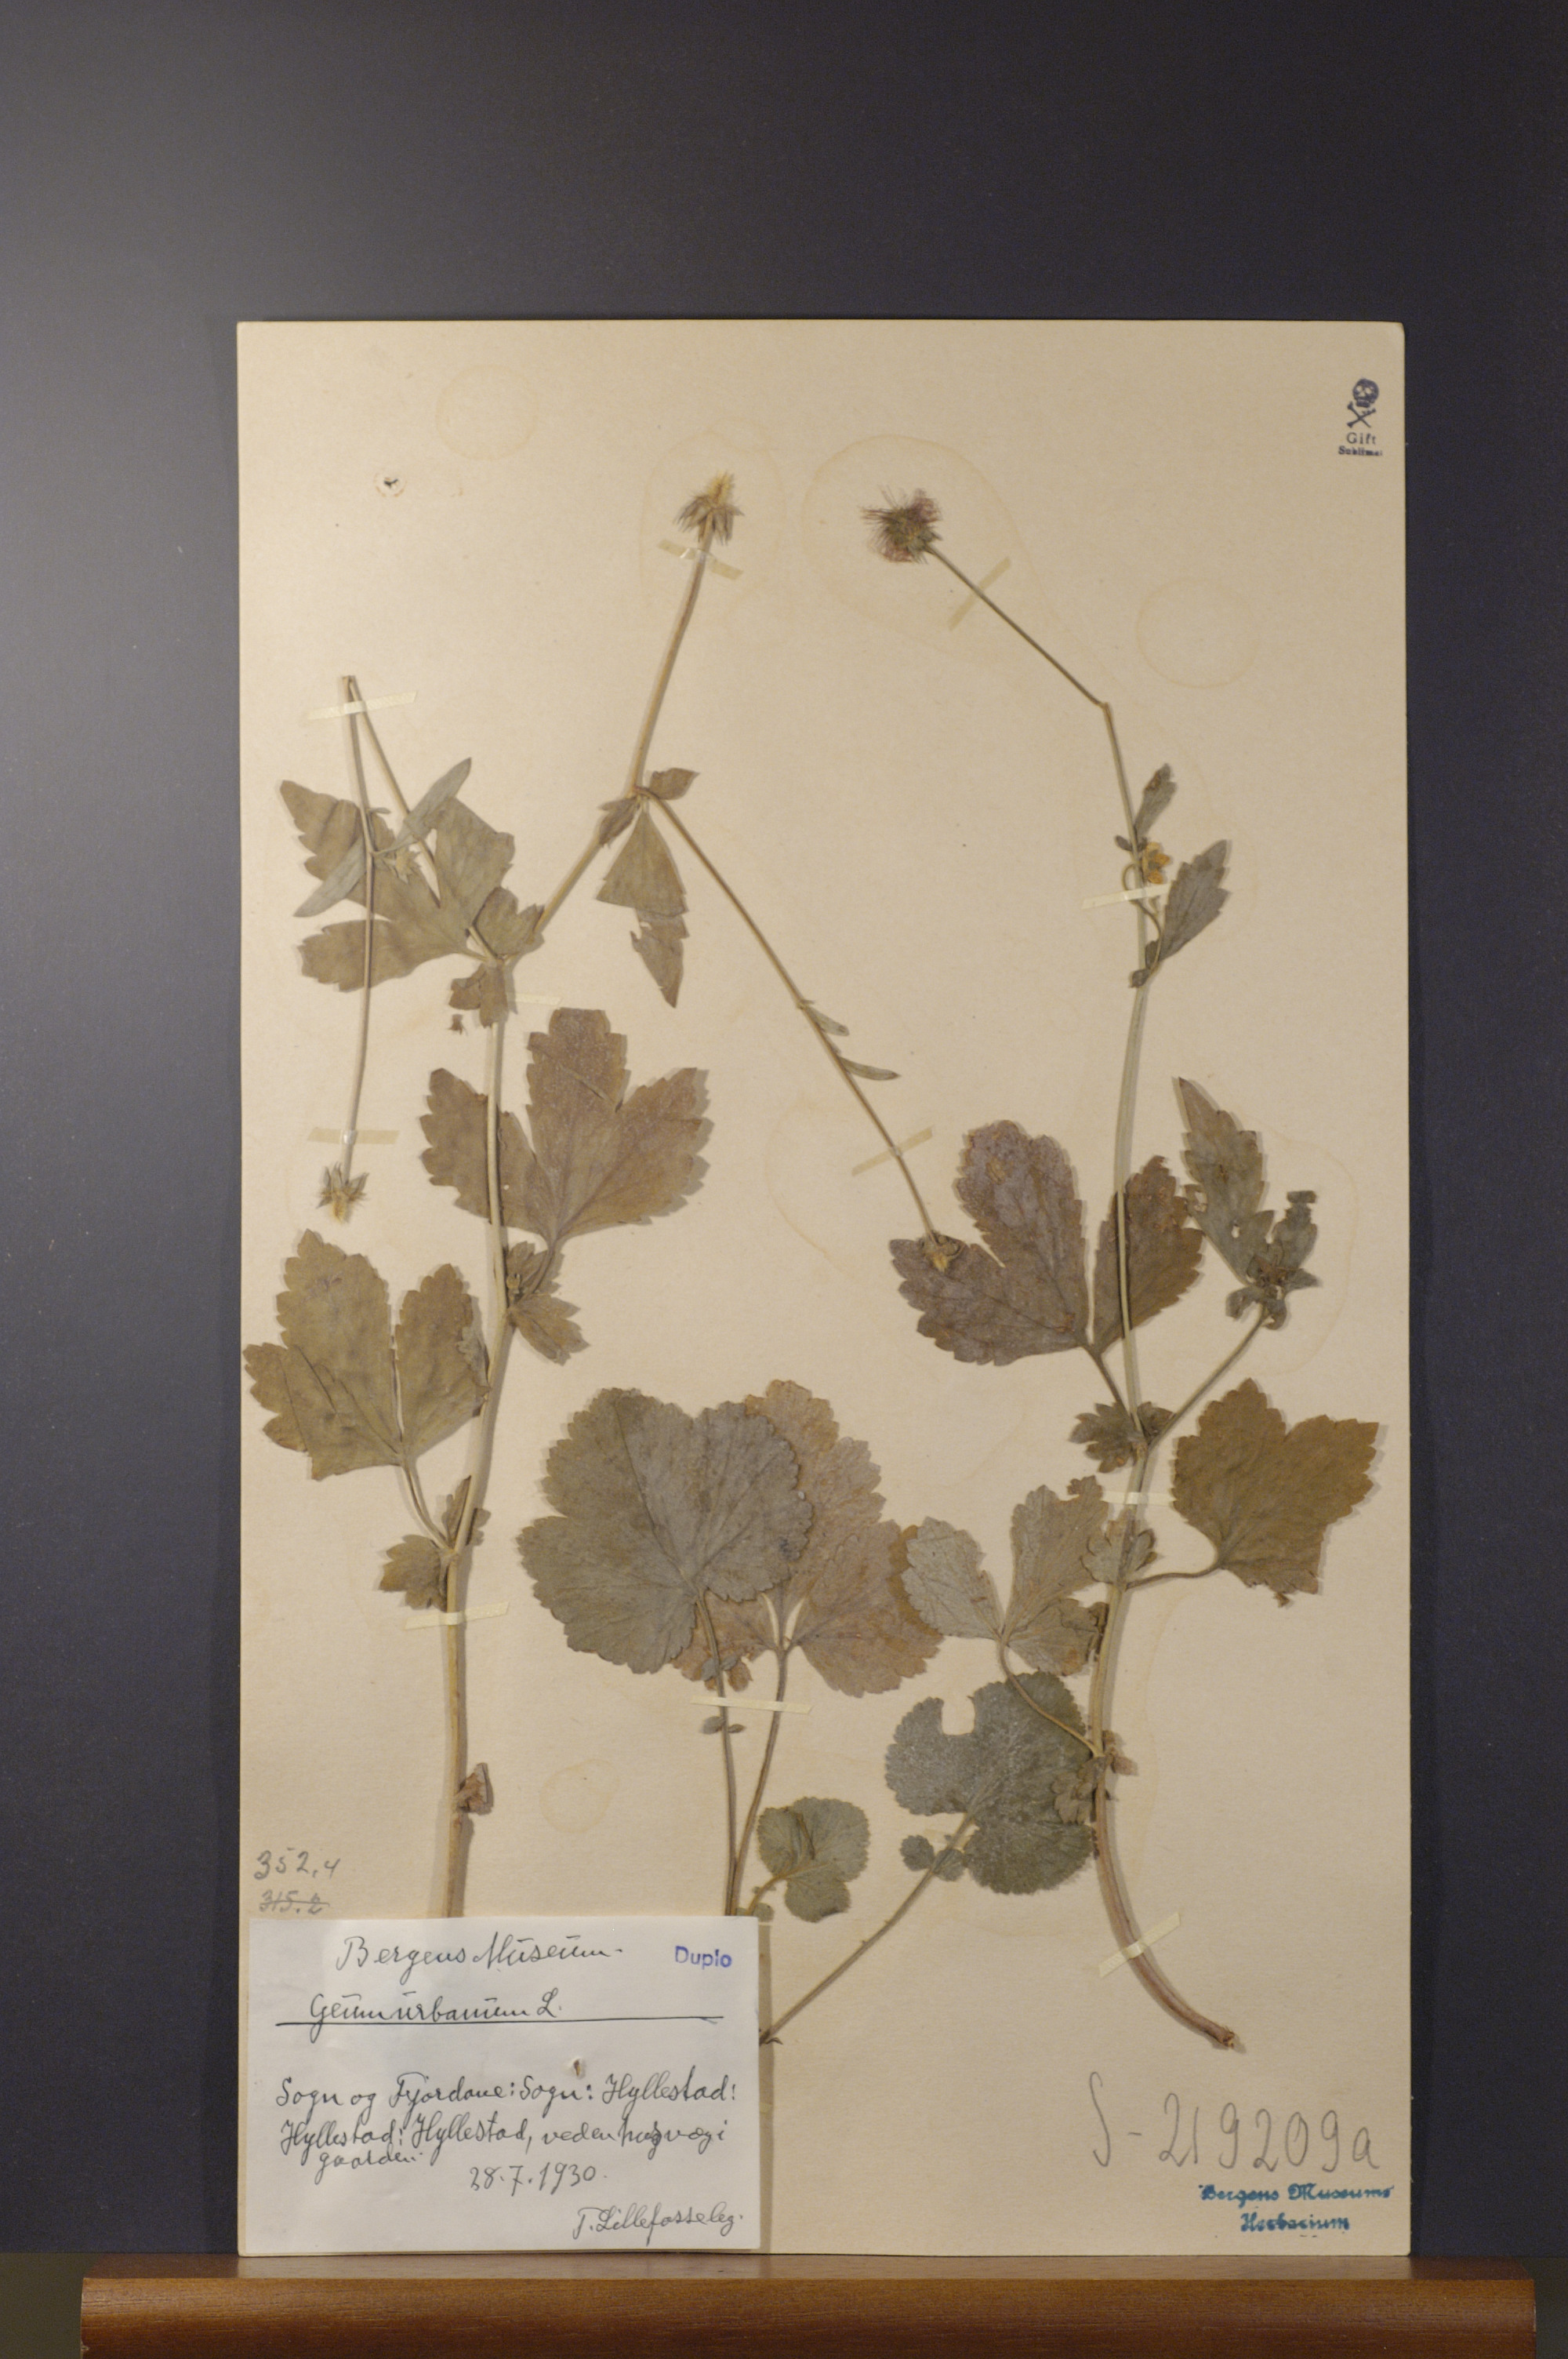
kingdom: Plantae
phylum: Tracheophyta
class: Magnoliopsida
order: Rosales
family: Rosaceae
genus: Geum
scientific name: Geum urbanum
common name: Wood avens
